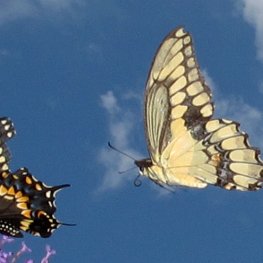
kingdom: Animalia
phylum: Arthropoda
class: Insecta
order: Lepidoptera
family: Papilionidae
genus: Papilio
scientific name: Papilio cresphontes
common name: Eastern Giant Swallowtail
